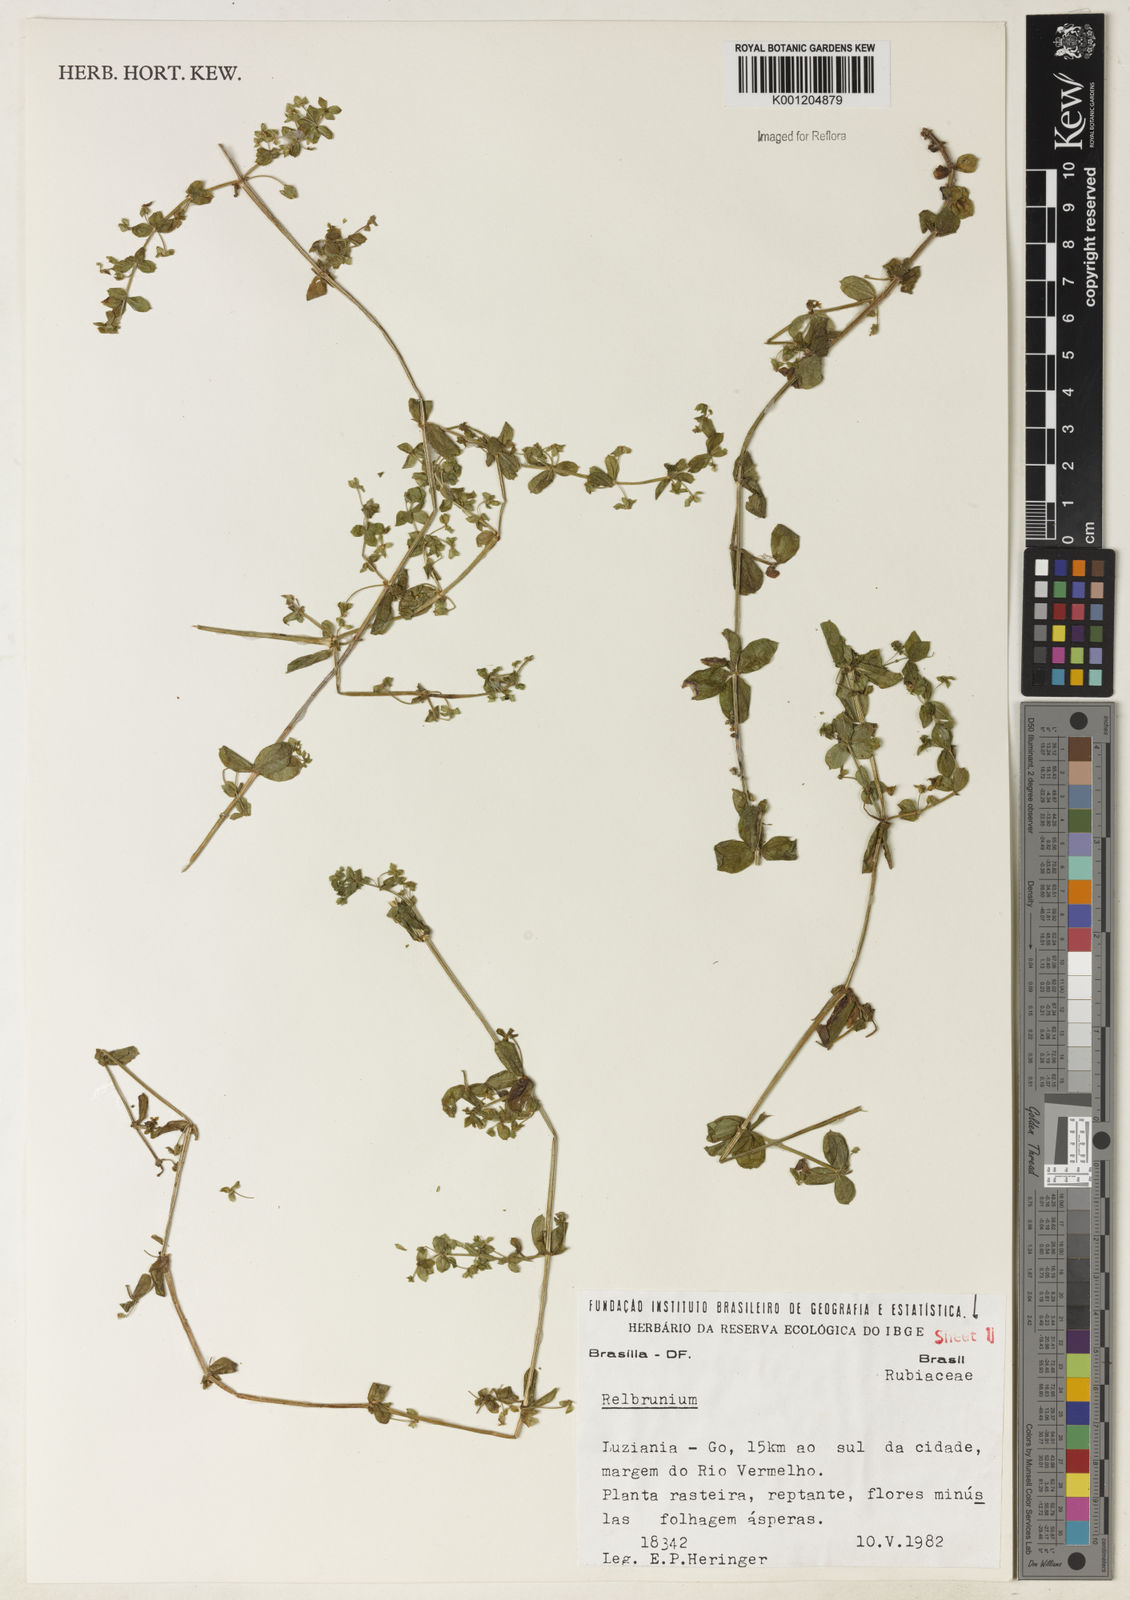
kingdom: Plantae
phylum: Tracheophyta
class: Magnoliopsida
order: Gentianales
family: Rubiaceae
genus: Galium
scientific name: Galium
